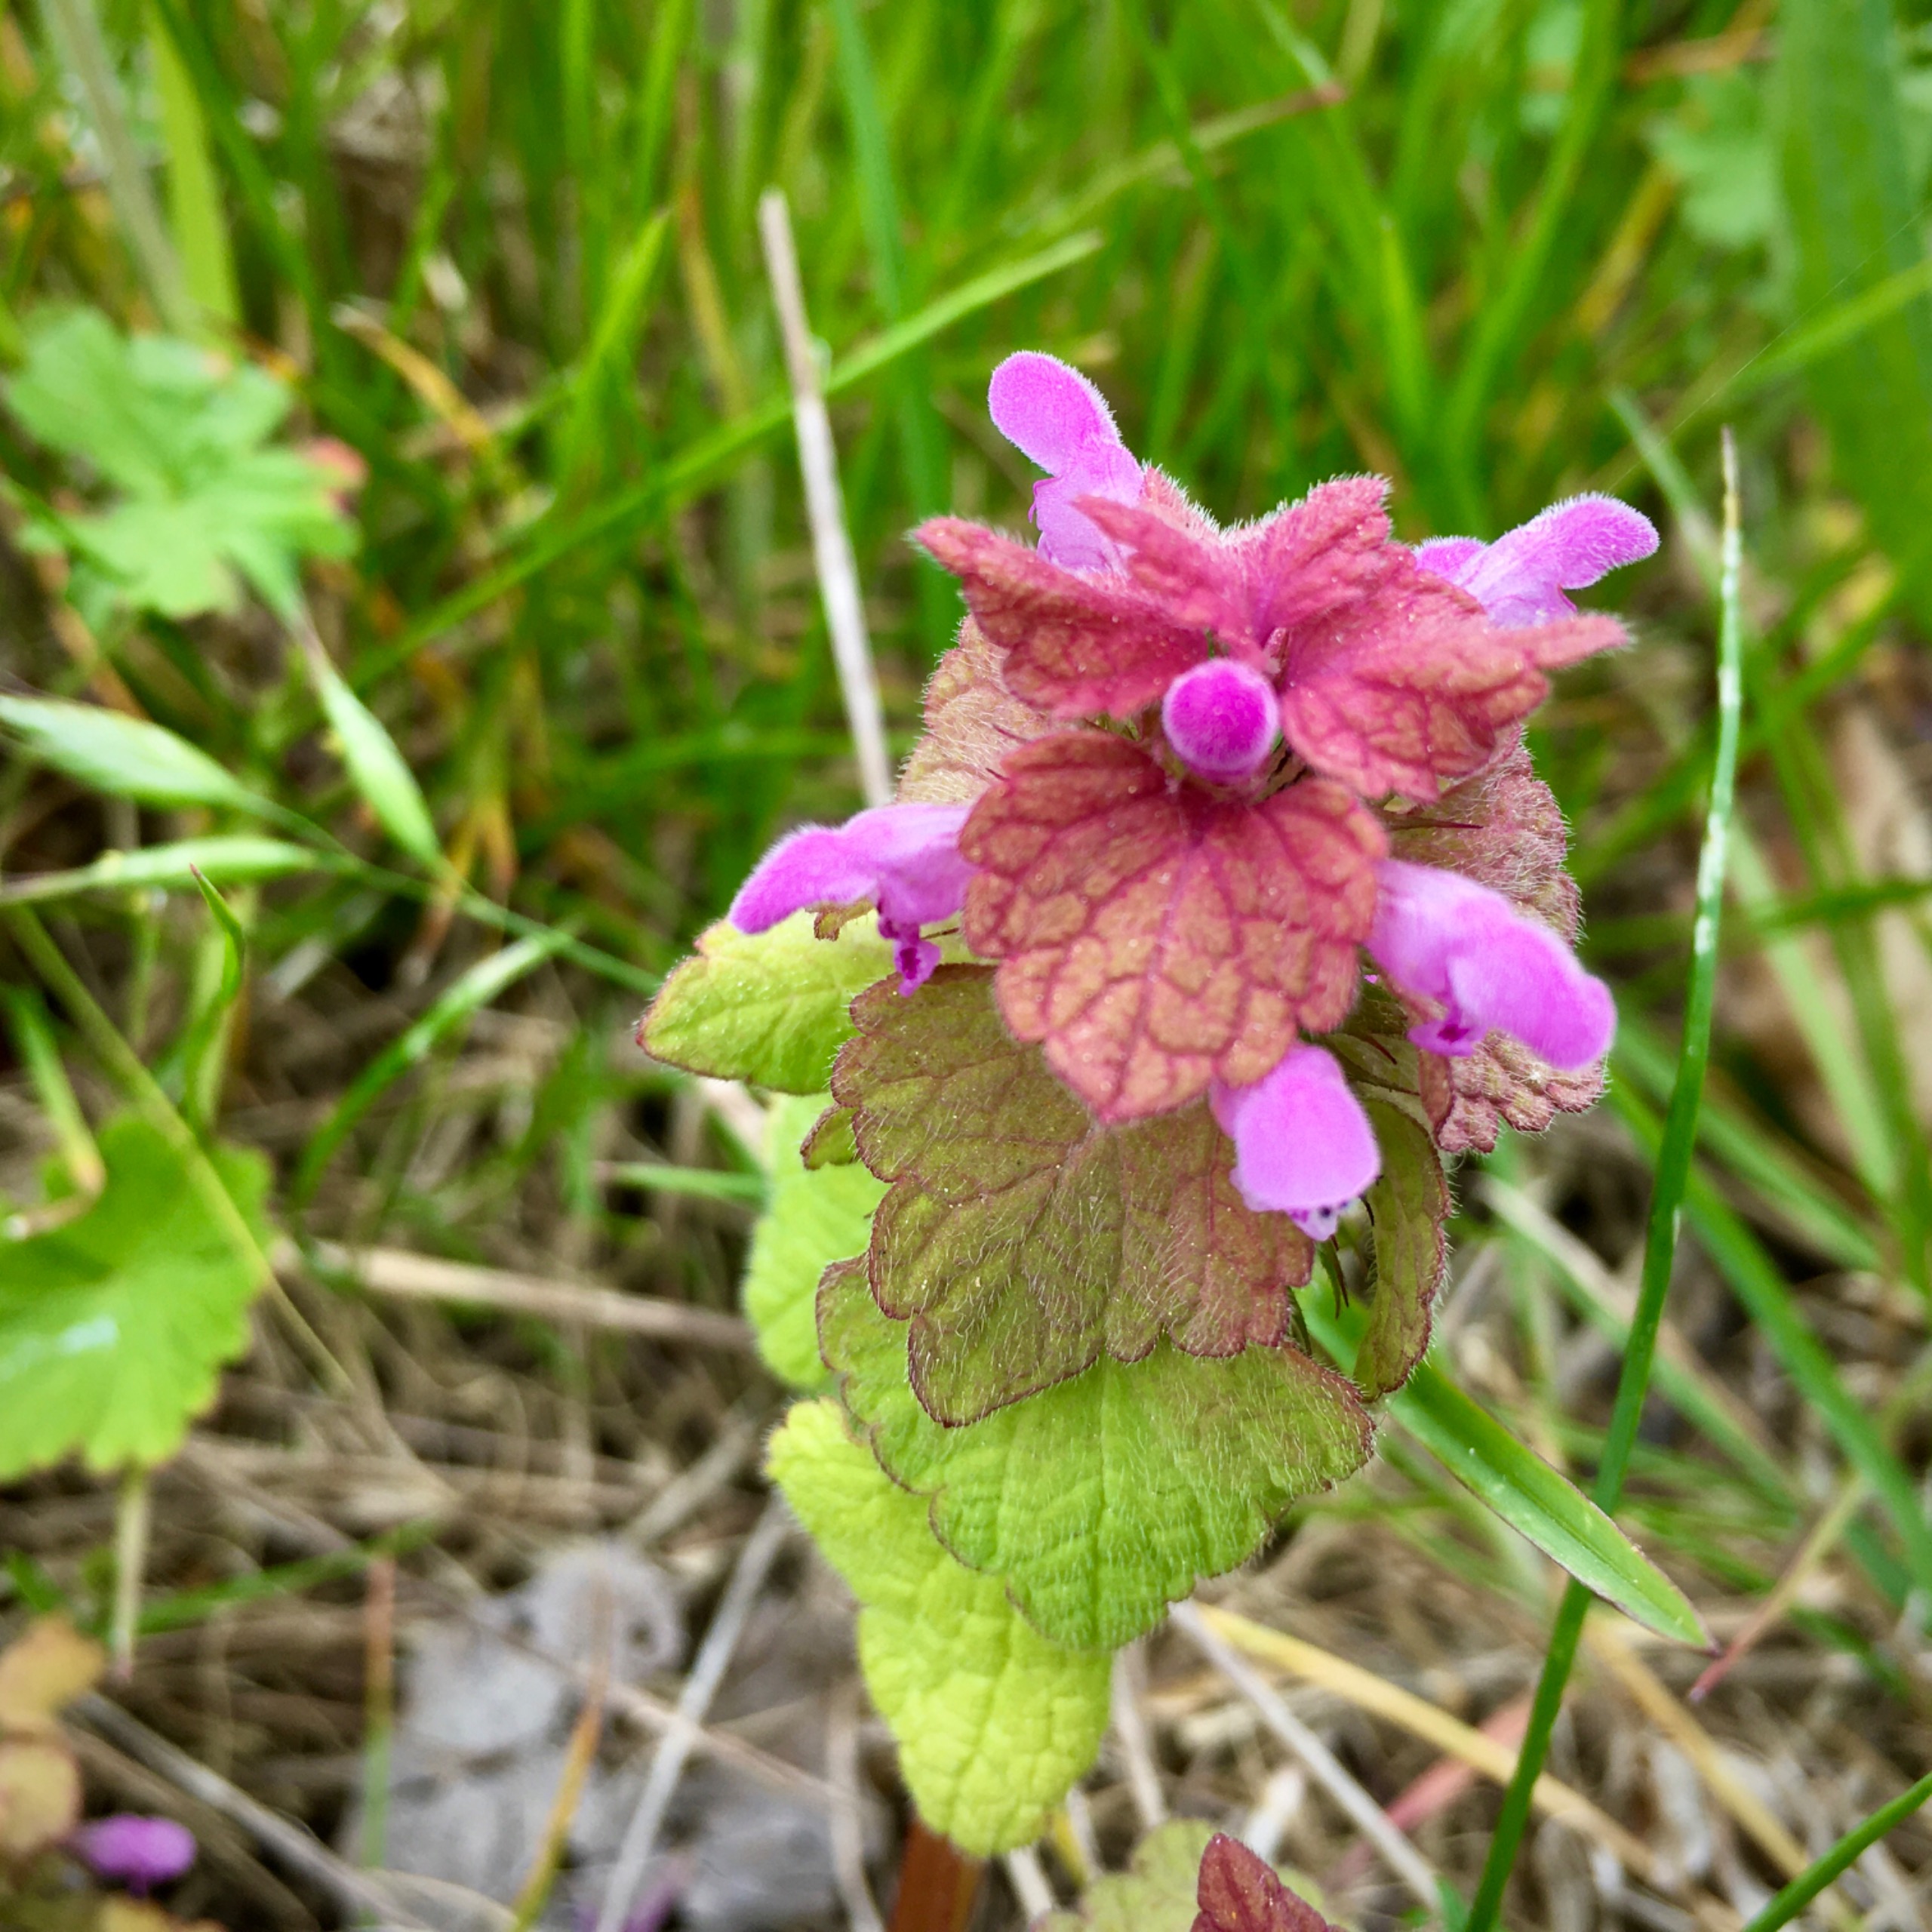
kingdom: Plantae
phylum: Tracheophyta
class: Magnoliopsida
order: Lamiales
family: Lamiaceae
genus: Lamium
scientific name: Lamium purpureum
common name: Rød tvetand
